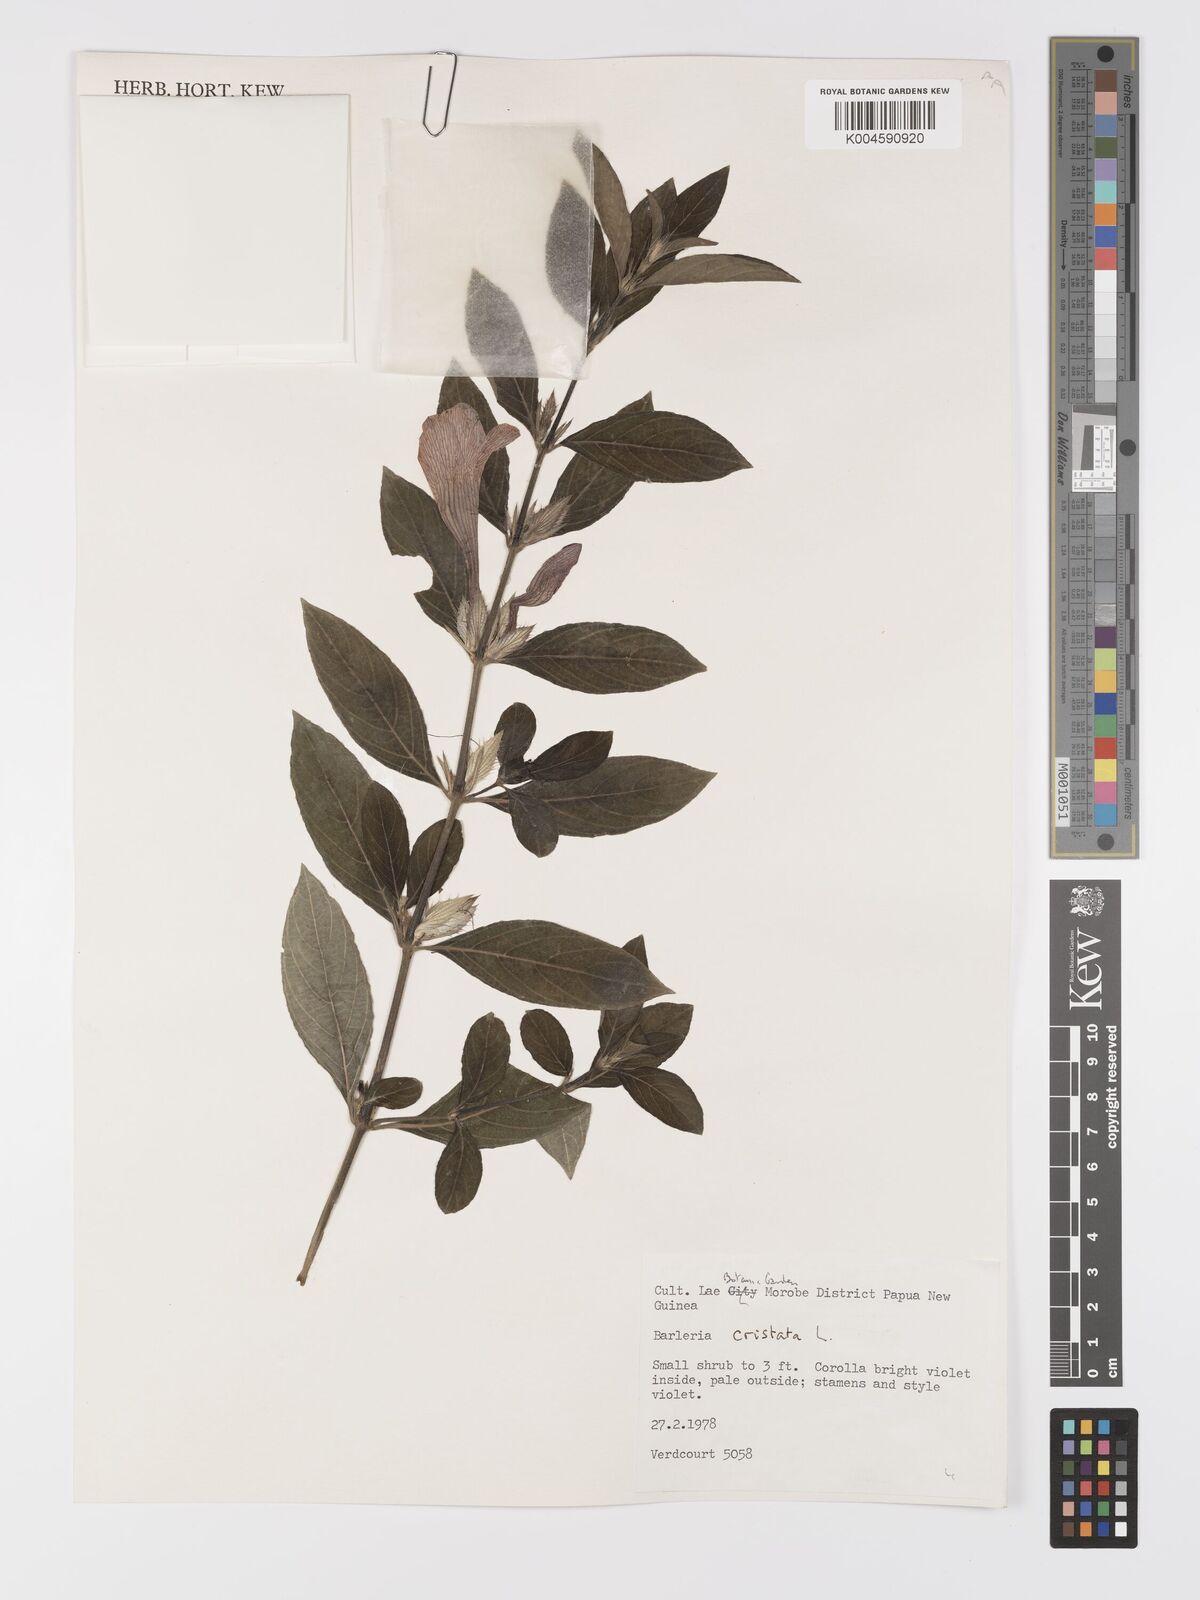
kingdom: Plantae
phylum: Tracheophyta
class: Magnoliopsida
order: Lamiales
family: Acanthaceae
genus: Barleria
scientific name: Barleria cristata
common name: Crested philippine violet
